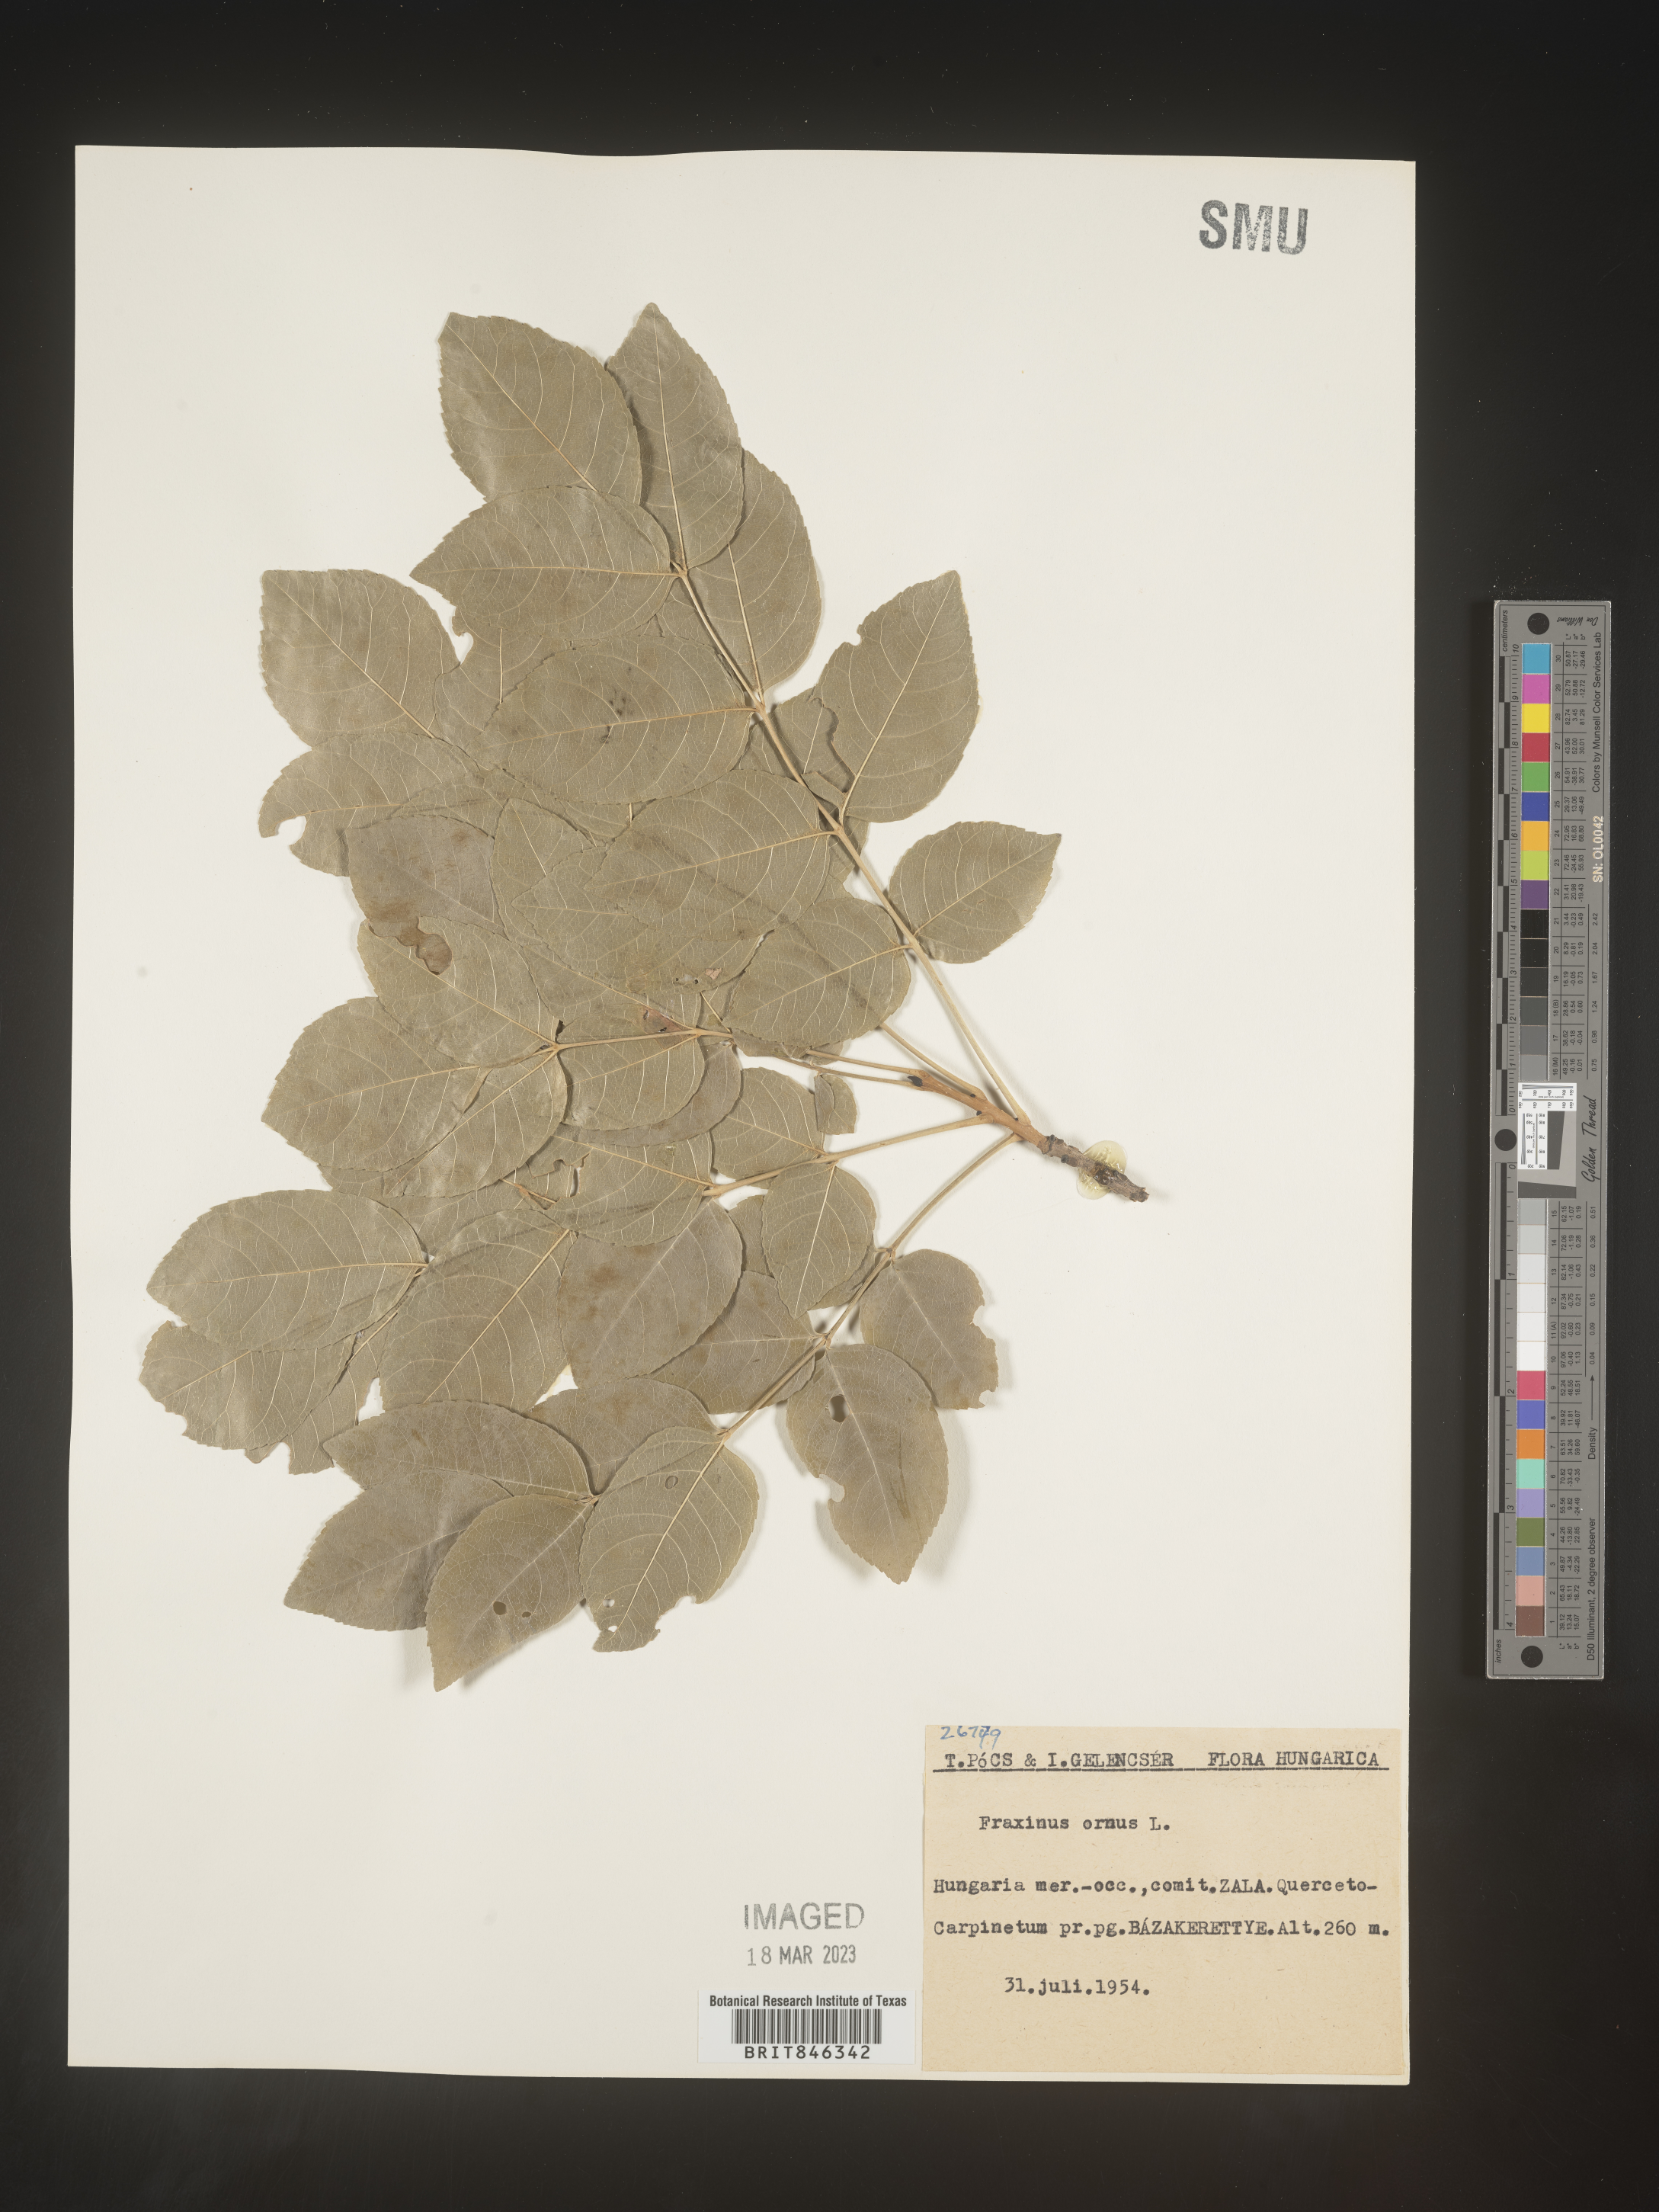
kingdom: Plantae
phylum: Tracheophyta
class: Magnoliopsida
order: Lamiales
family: Oleaceae
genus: Fraxinus
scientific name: Fraxinus
